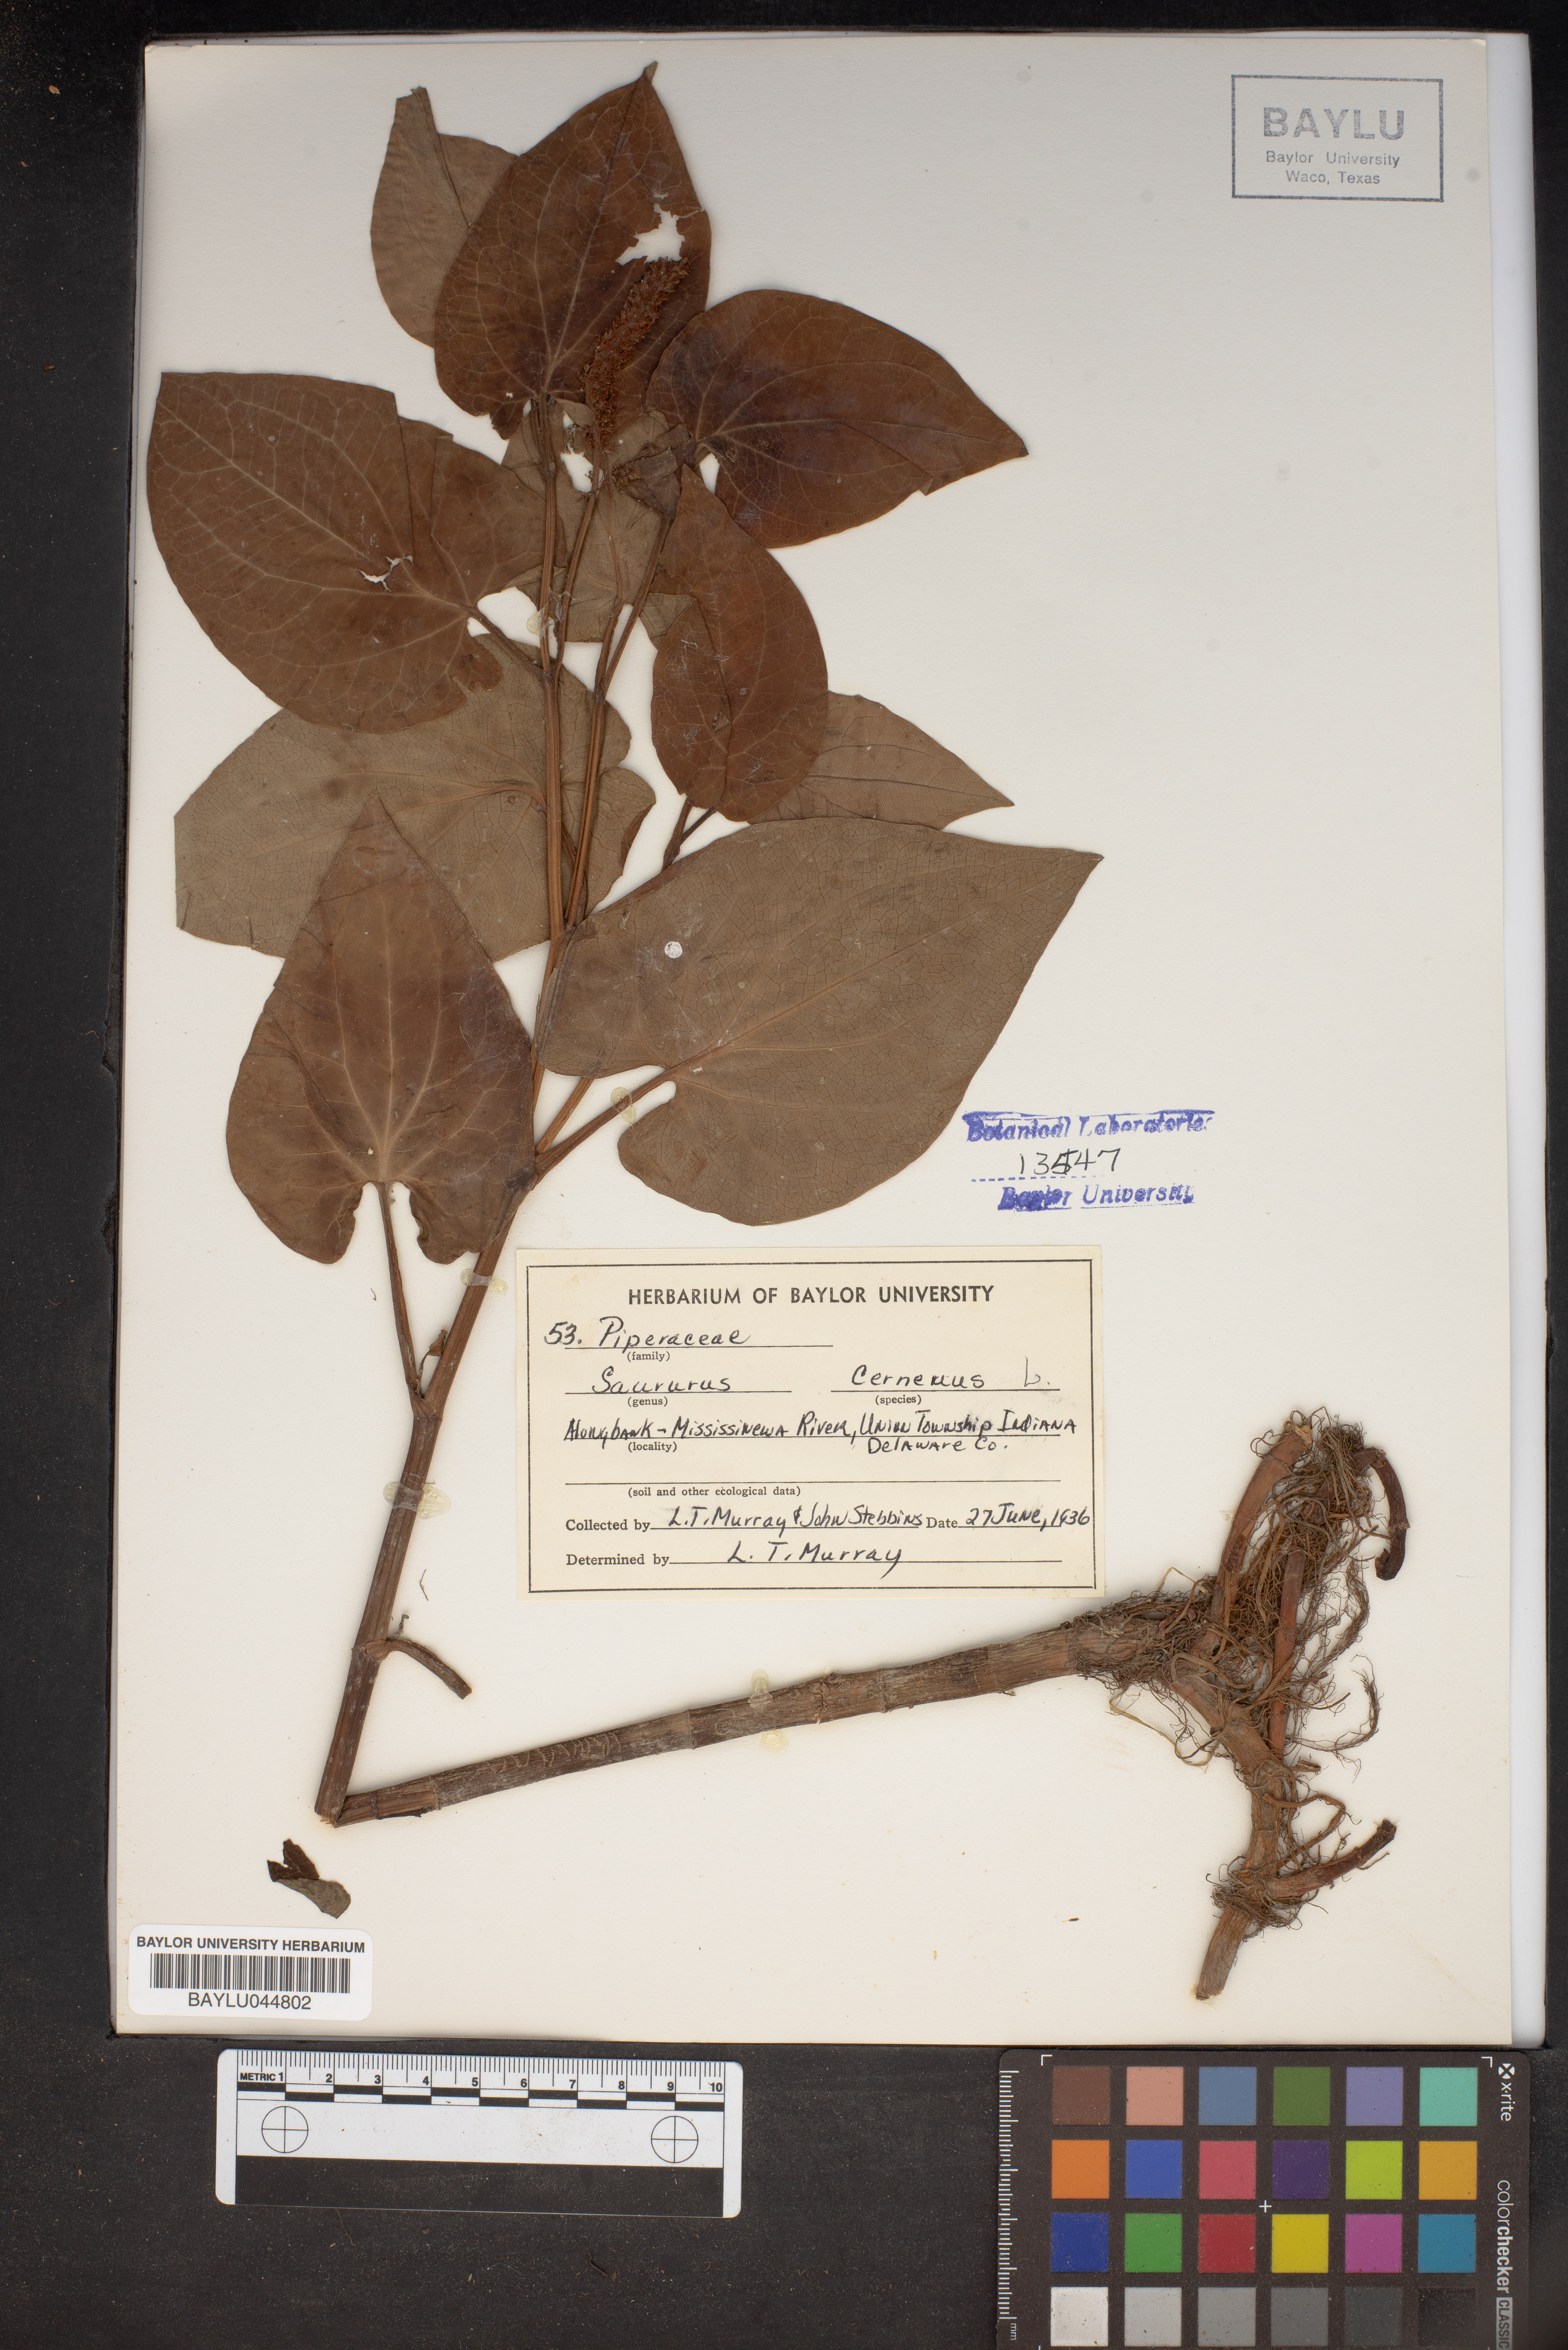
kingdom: Plantae
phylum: Tracheophyta
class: Magnoliopsida
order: Piperales
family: Saururaceae
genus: Saururus
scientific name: Saururus cernuus
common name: Lizard's-tail
